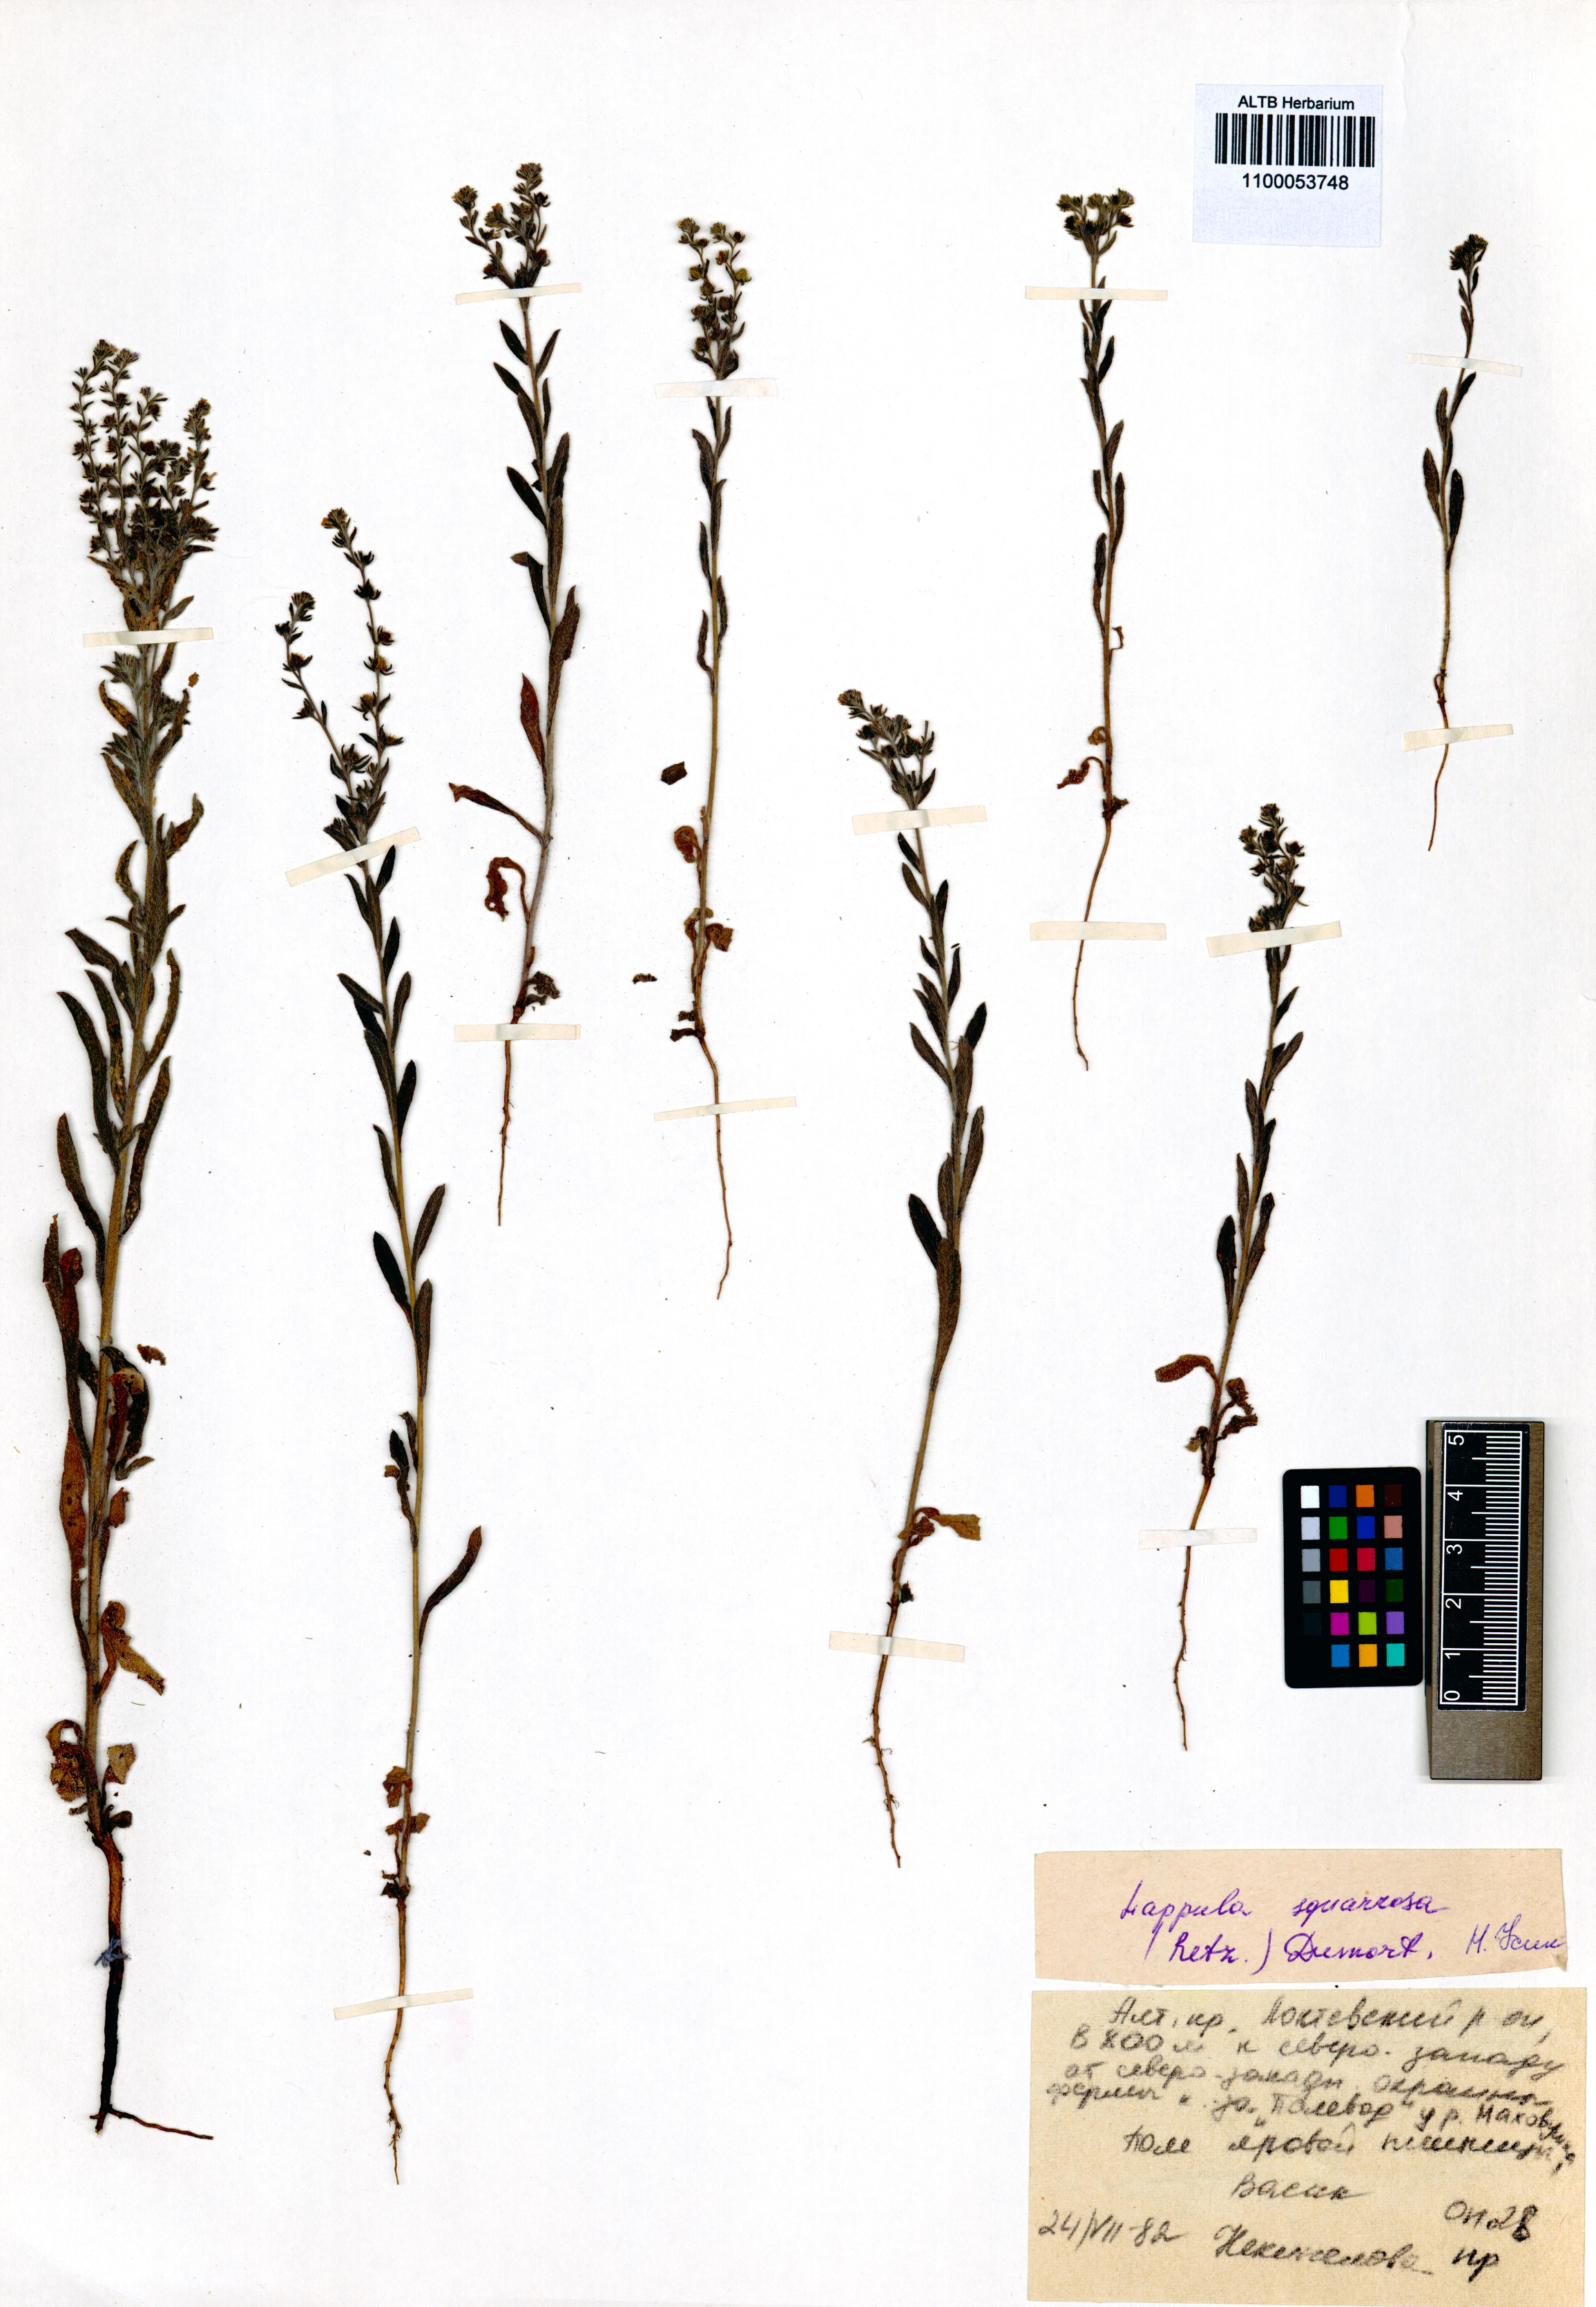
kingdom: Plantae
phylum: Tracheophyta
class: Magnoliopsida
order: Boraginales
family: Boraginaceae
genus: Lappula
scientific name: Lappula squarrosa
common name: European stickseed
